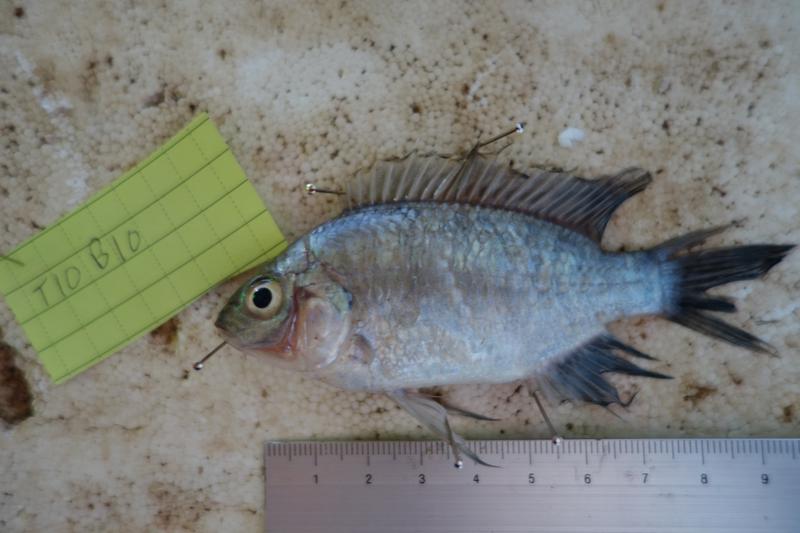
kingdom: Animalia
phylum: Chordata
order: Perciformes
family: Cichlidae
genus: Oreochromis
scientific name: Oreochromis rukwaensis
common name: Lake rukwa tilapia
